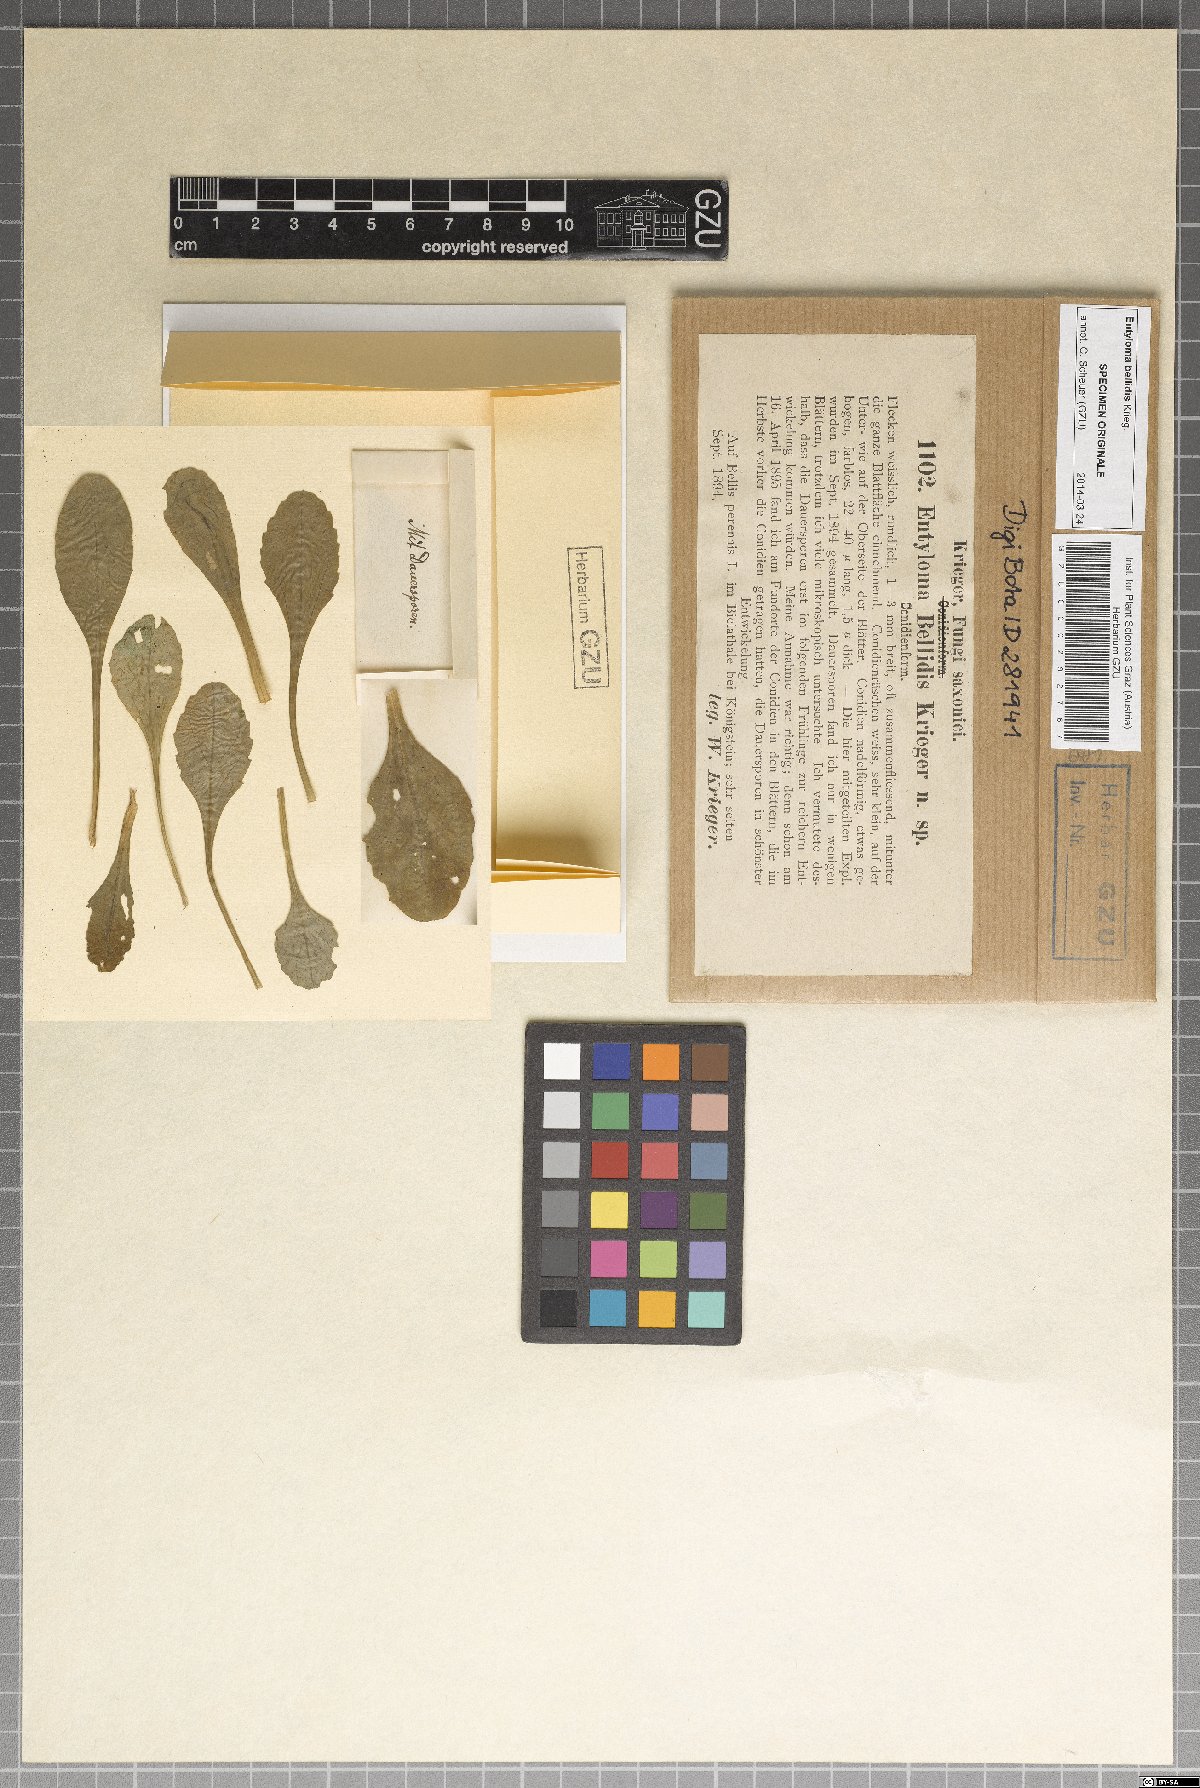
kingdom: Fungi
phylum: Basidiomycota
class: Exobasidiomycetes
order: Entylomatales
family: Entylomataceae
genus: Entyloma
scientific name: Entyloma bellidis
